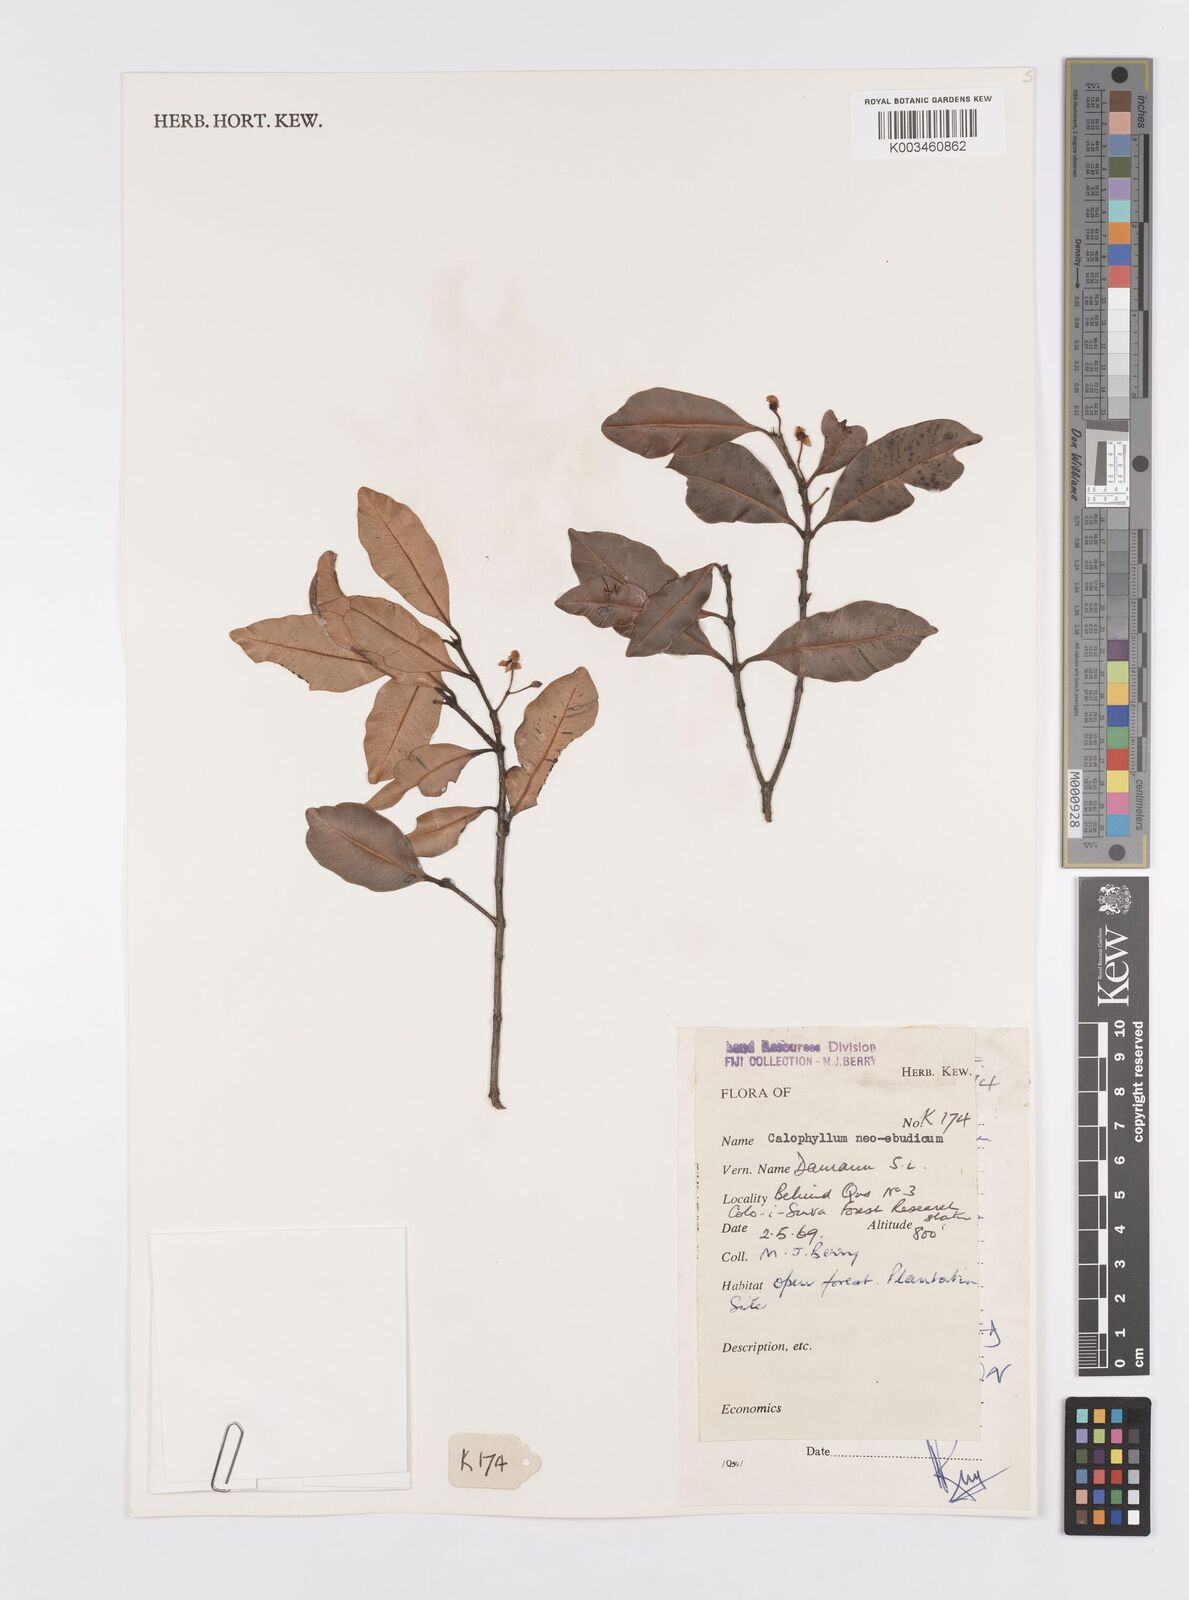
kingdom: Plantae
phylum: Tracheophyta
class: Magnoliopsida
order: Malpighiales
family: Calophyllaceae
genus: Calophyllum
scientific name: Calophyllum neoebudicum
